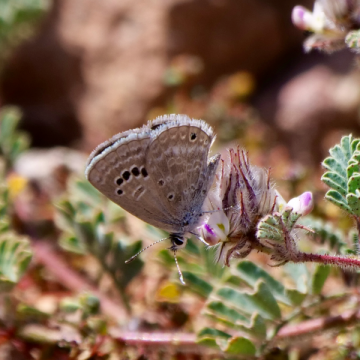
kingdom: Animalia
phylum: Arthropoda
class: Insecta
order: Lepidoptera
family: Lycaenidae
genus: Echinargus
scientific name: Echinargus isola
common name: Reakirt's Blue
